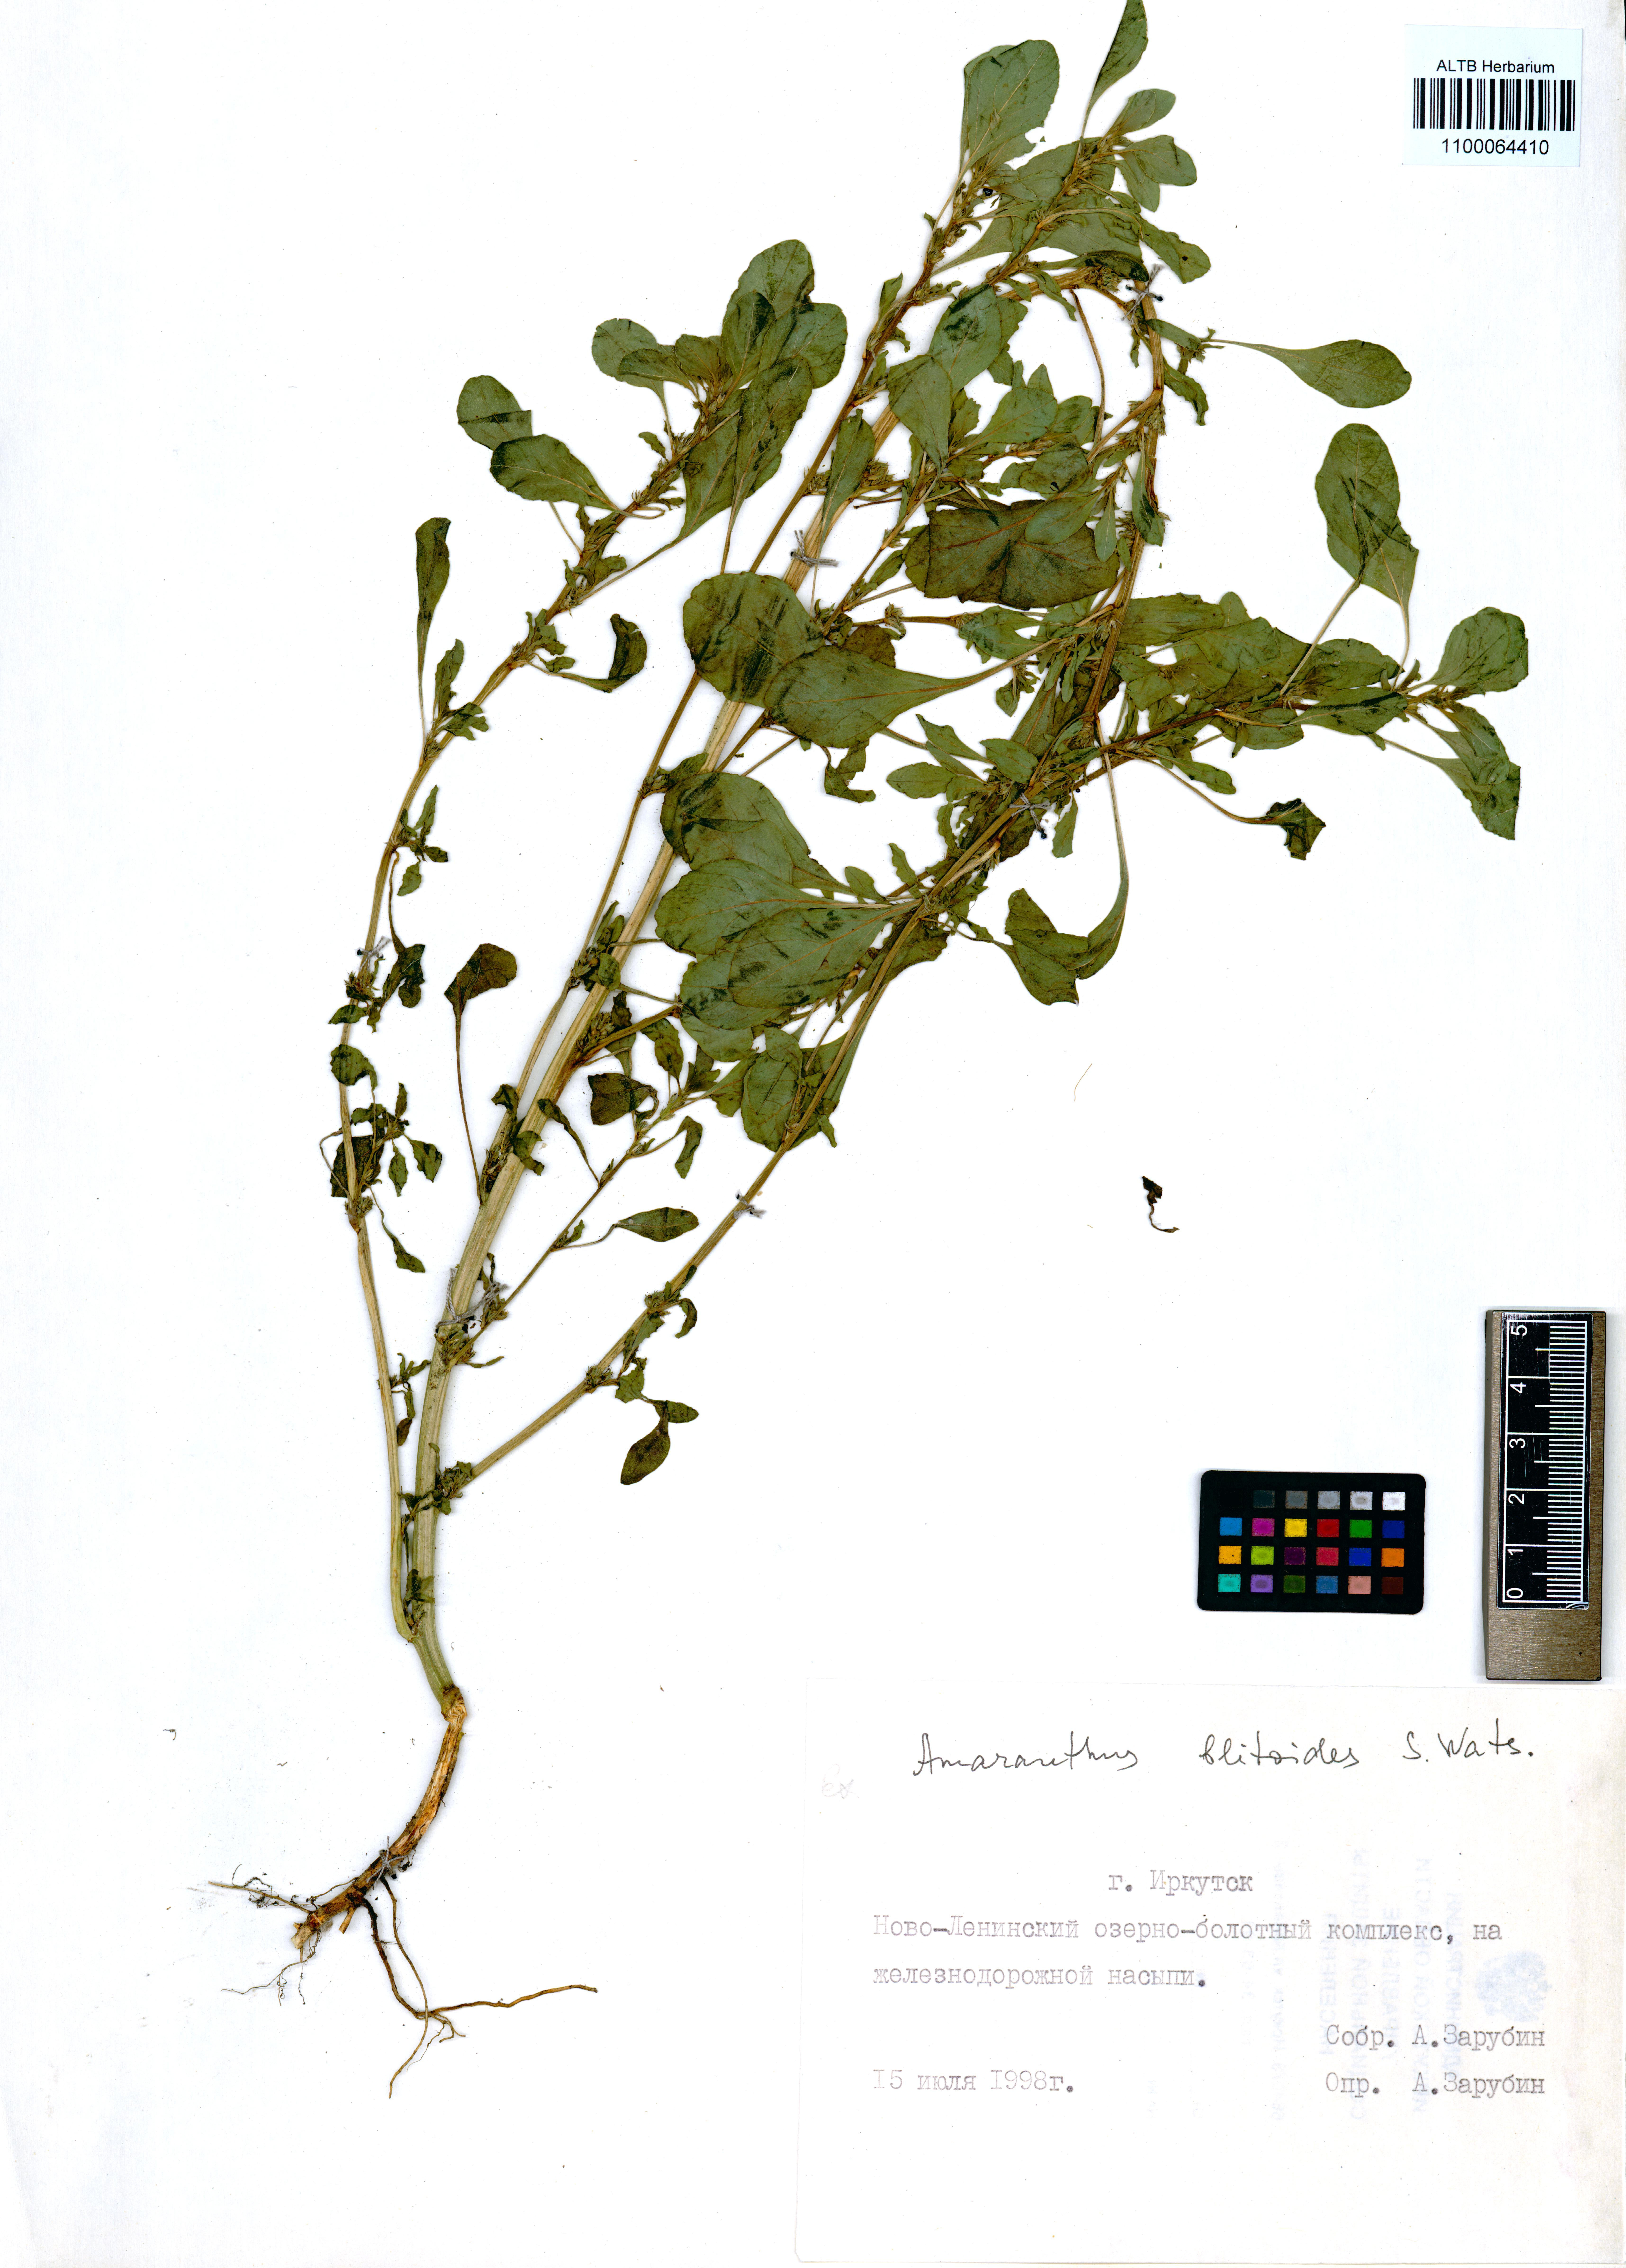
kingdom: Plantae
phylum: Tracheophyta
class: Magnoliopsida
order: Caryophyllales
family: Amaranthaceae
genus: Amaranthus
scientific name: Amaranthus blitoides
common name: Prostrate pigweed
